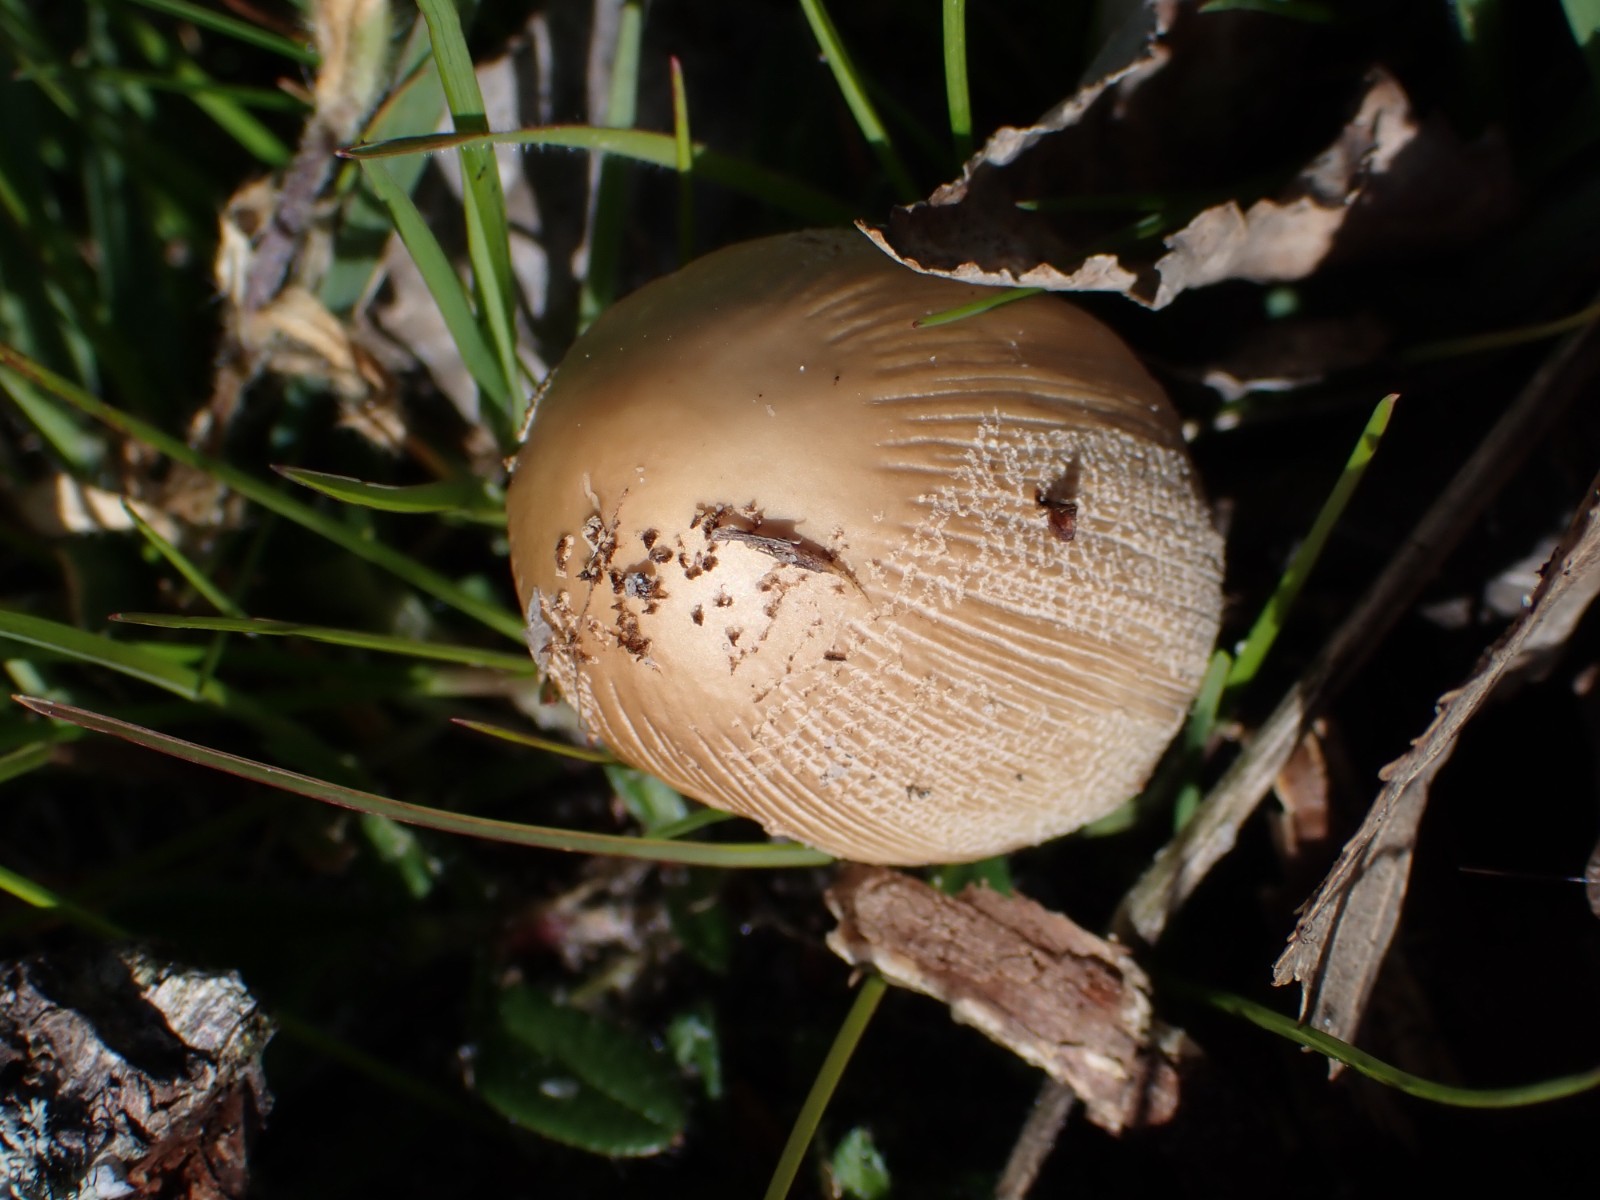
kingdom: Fungi
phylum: Basidiomycota
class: Agaricomycetes
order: Agaricales
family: Psathyrellaceae
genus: Coprinellus
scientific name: Coprinellus micaceus
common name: glimmer-blækhat
